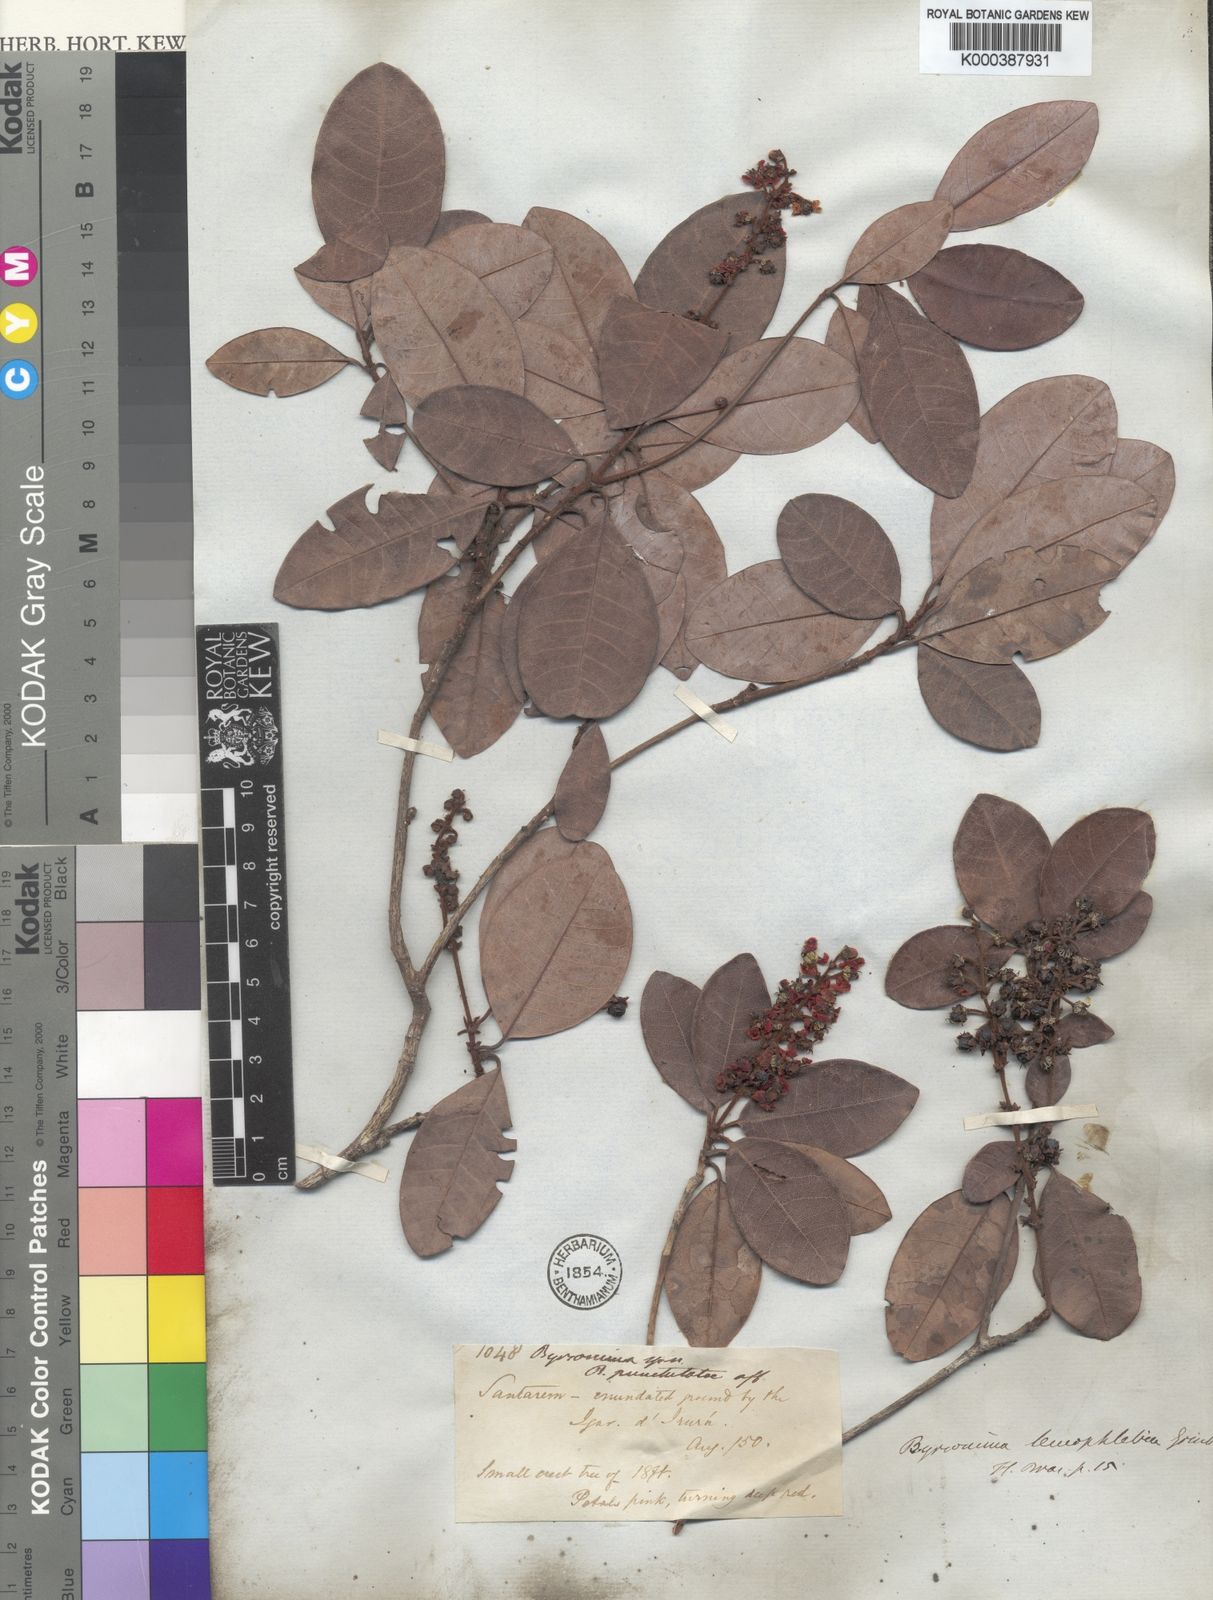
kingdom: Plantae
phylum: Tracheophyta
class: Magnoliopsida
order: Malpighiales
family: Malpighiaceae
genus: Byrsonima
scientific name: Byrsonima leucophlebia
